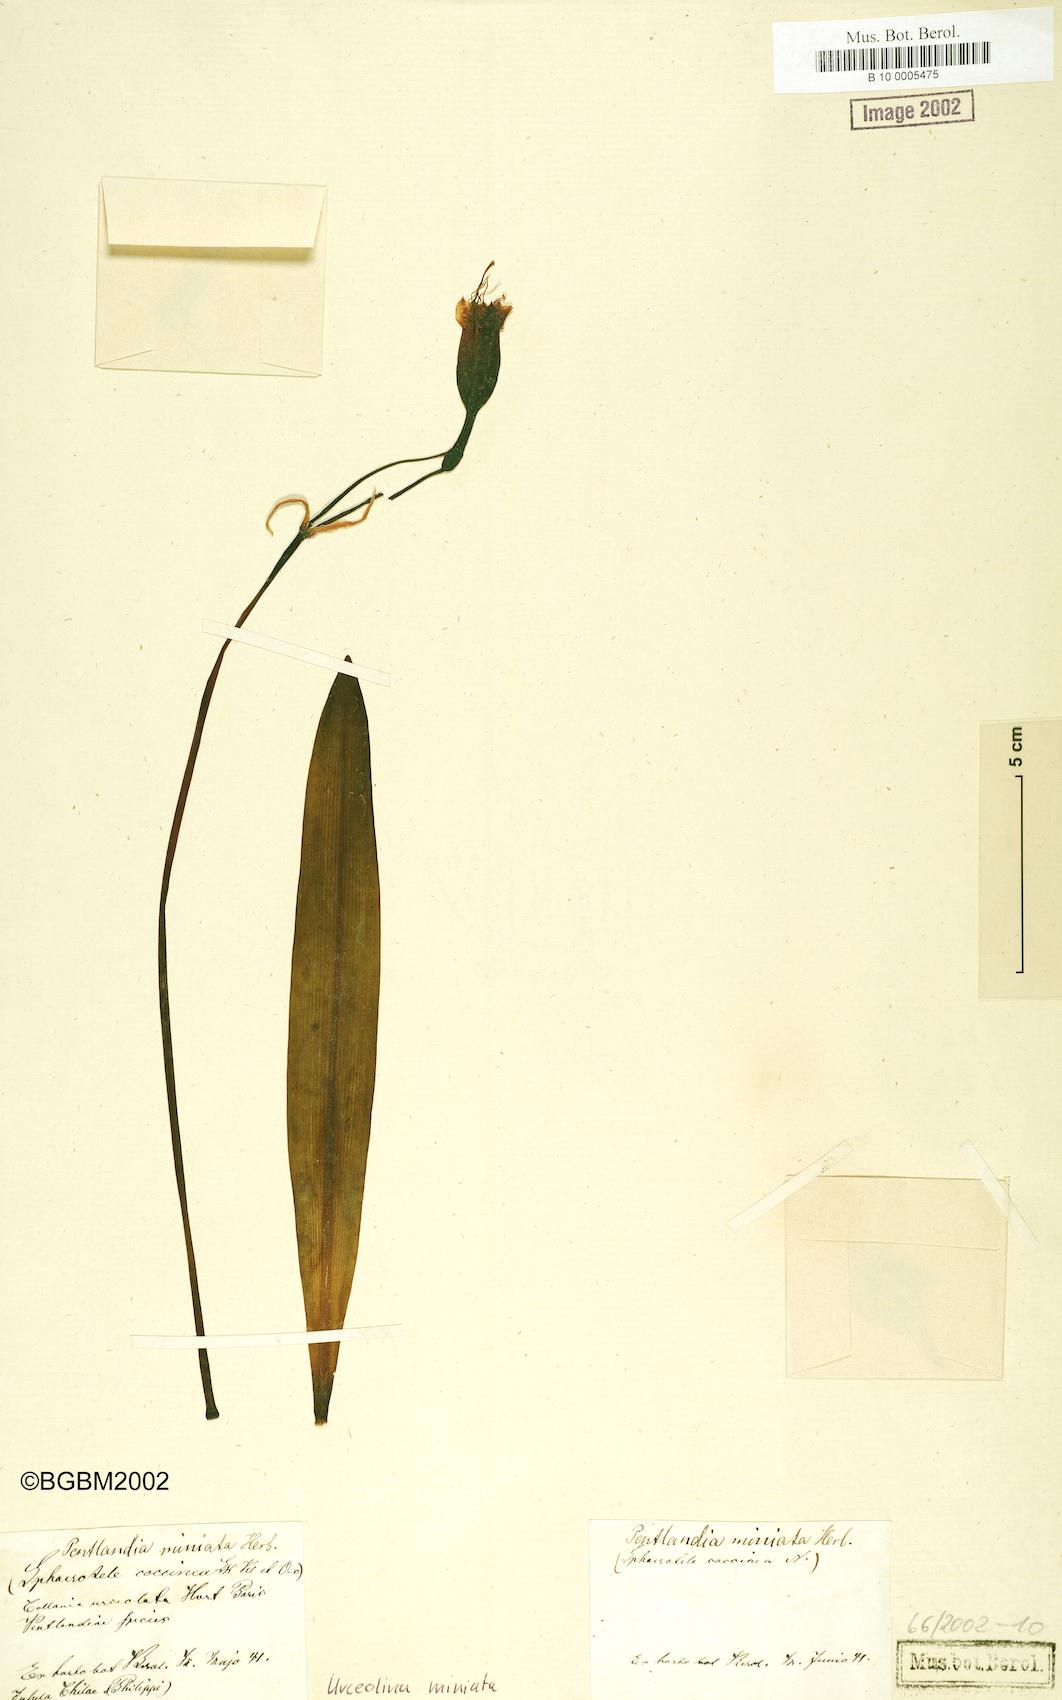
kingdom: Plantae
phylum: Tracheophyta
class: Liliopsida
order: Asparagales
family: Amaryllidaceae
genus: Stenomesson
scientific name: Stenomesson miniatum
